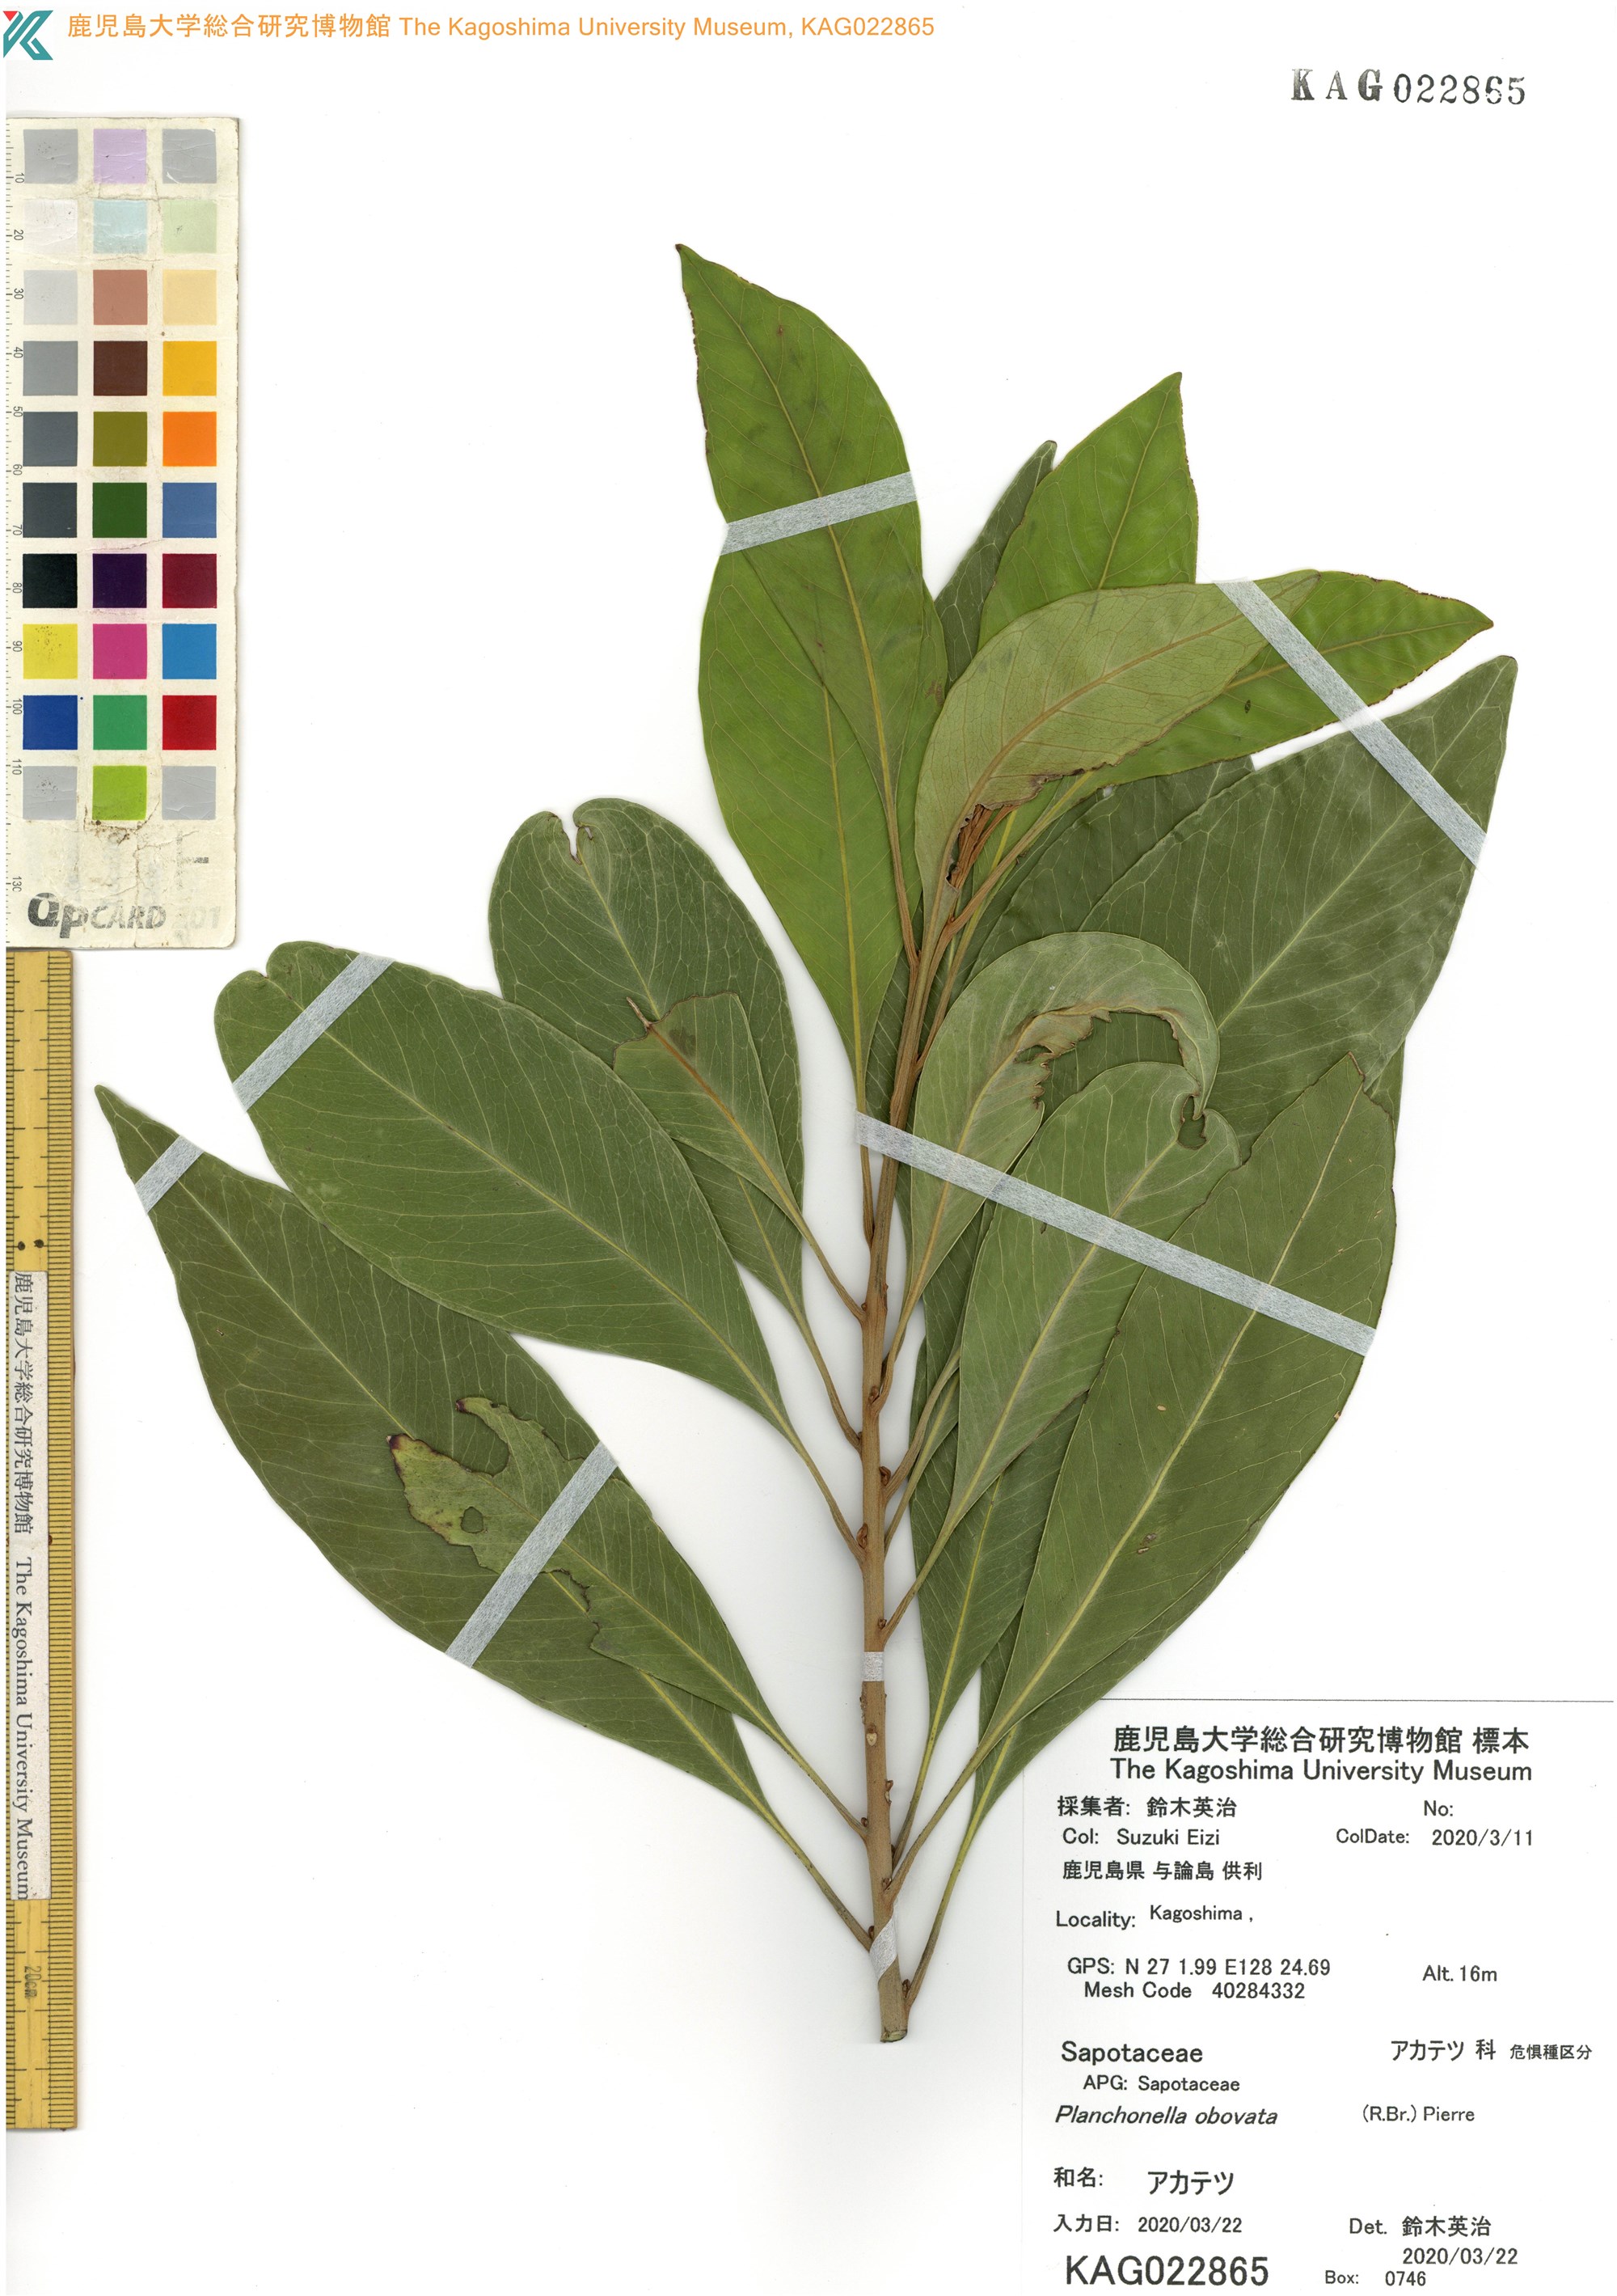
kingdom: Plantae
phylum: Tracheophyta
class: Magnoliopsida
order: Ericales
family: Sapotaceae
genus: Planchonella
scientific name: Planchonella obovata
